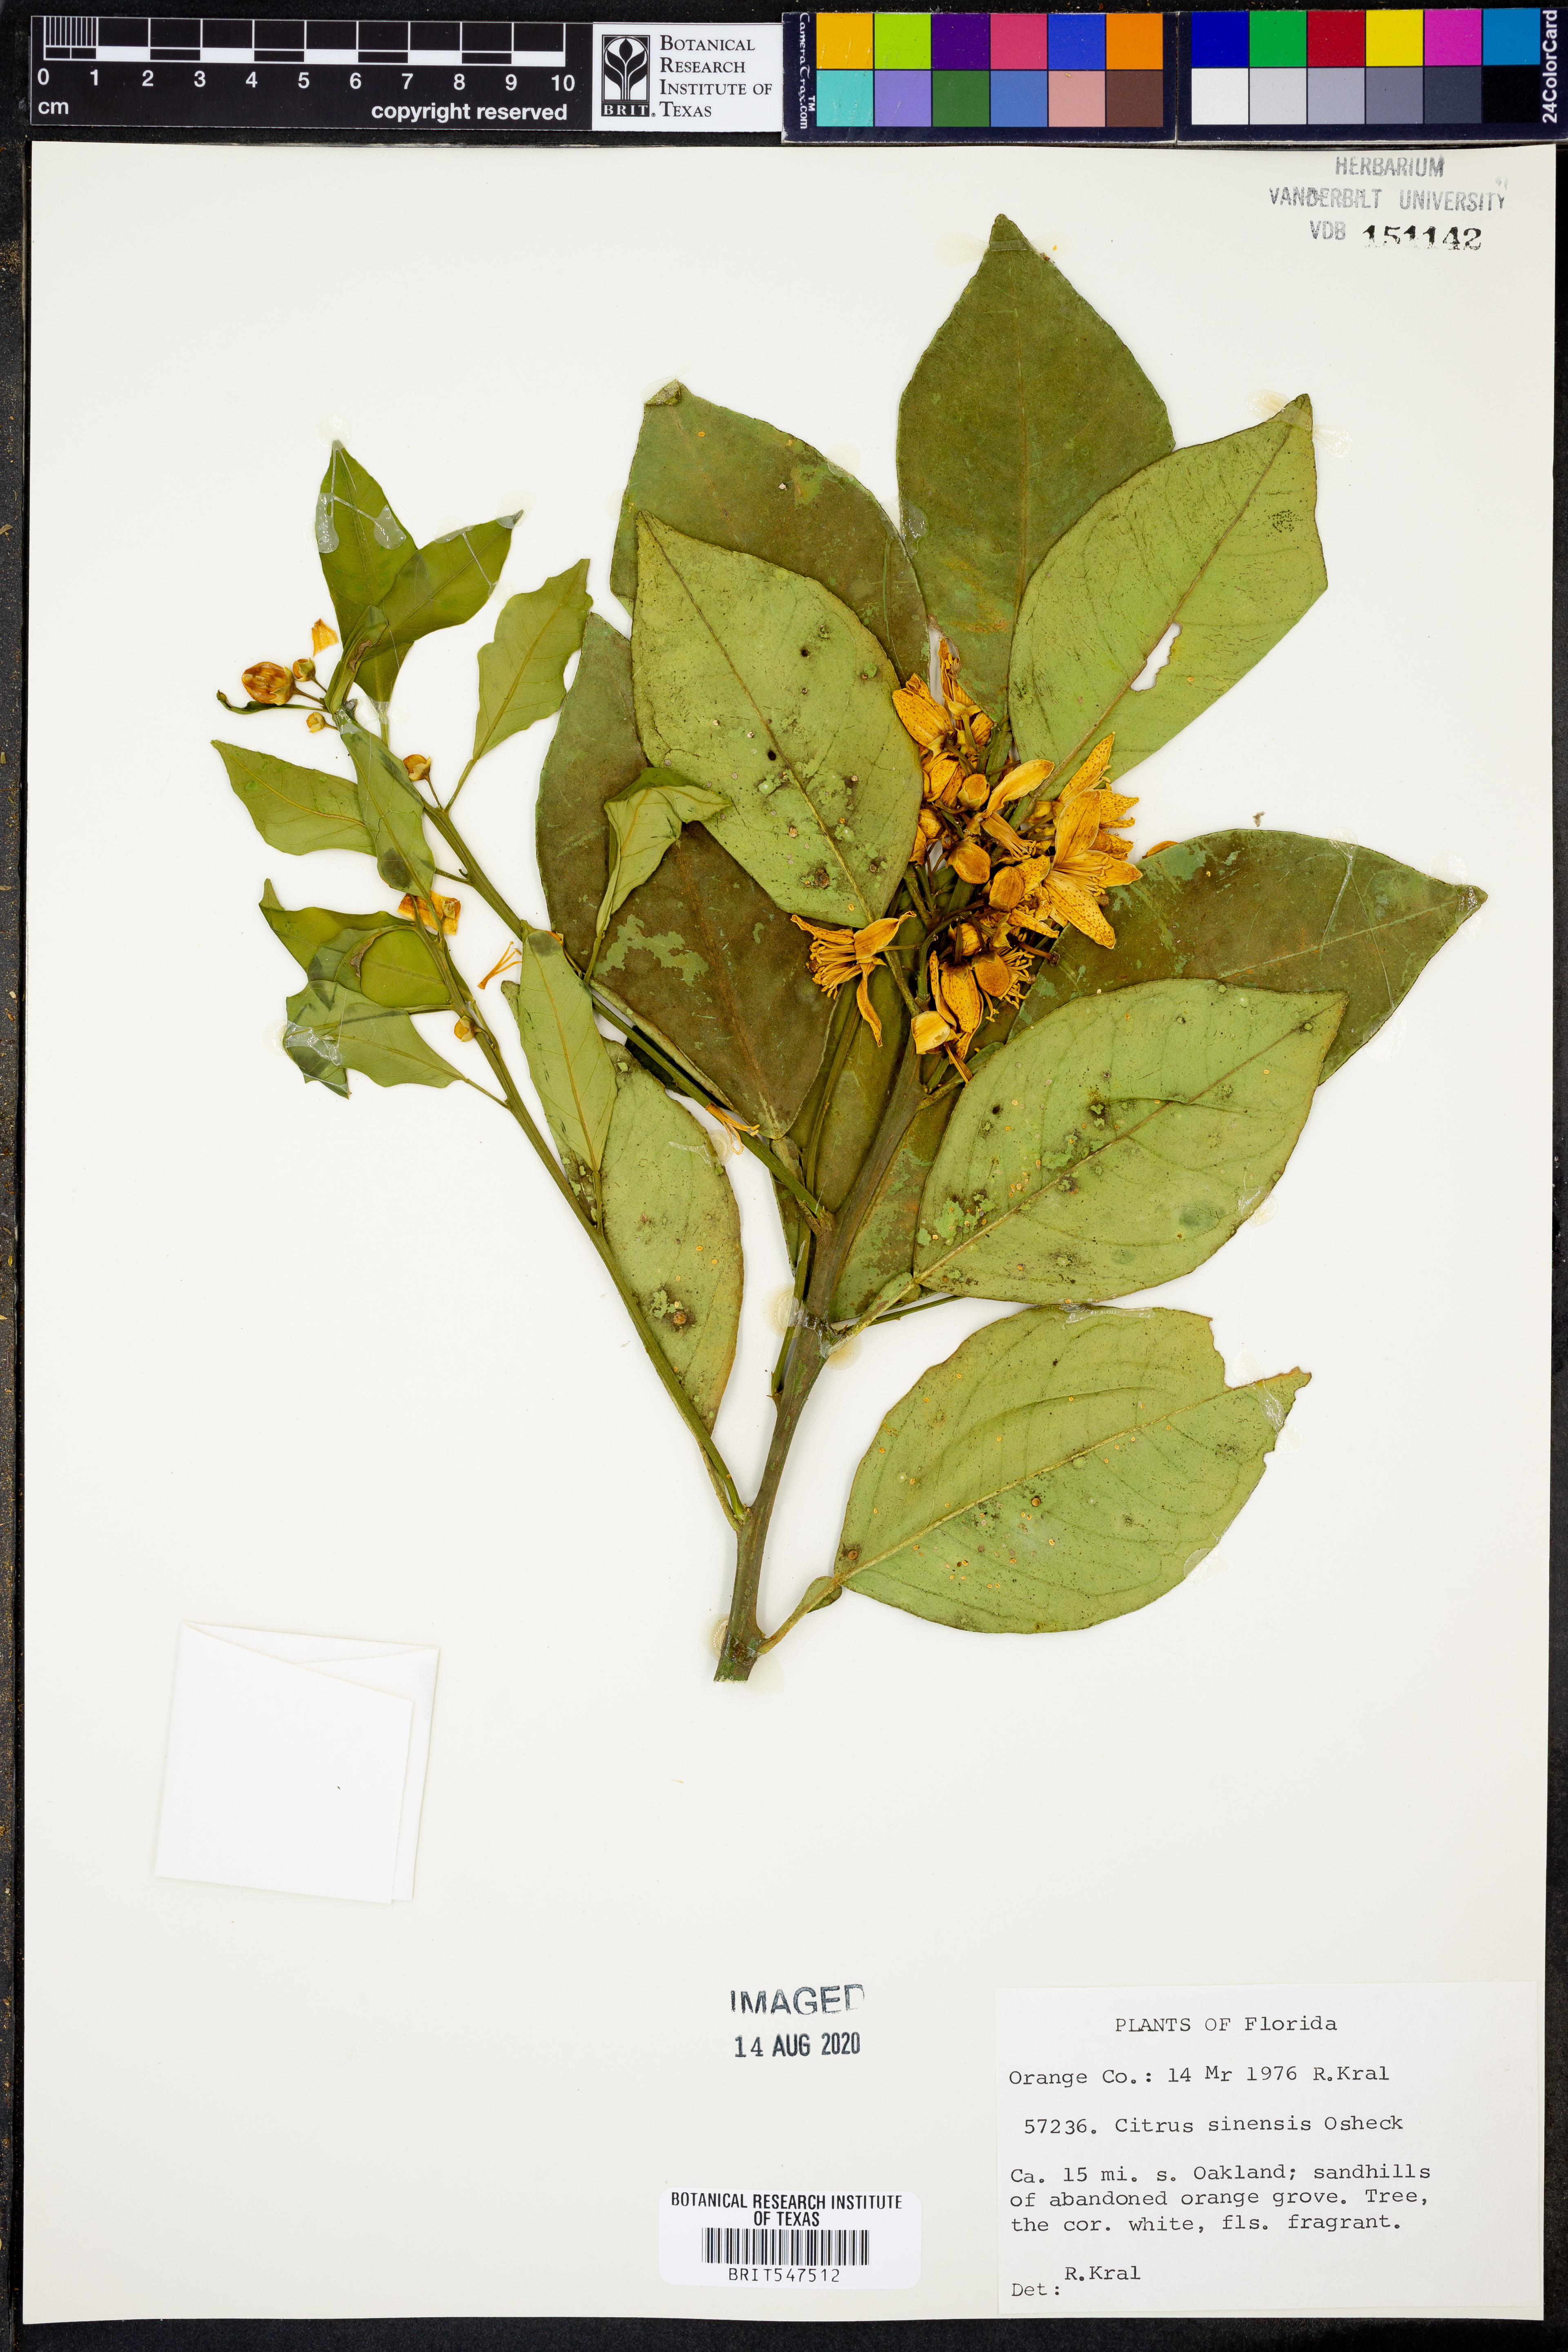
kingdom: Plantae
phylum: Tracheophyta
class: Magnoliopsida
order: Sapindales
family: Rutaceae
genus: Citrus
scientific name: Citrus aurantium
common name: Sour orange
